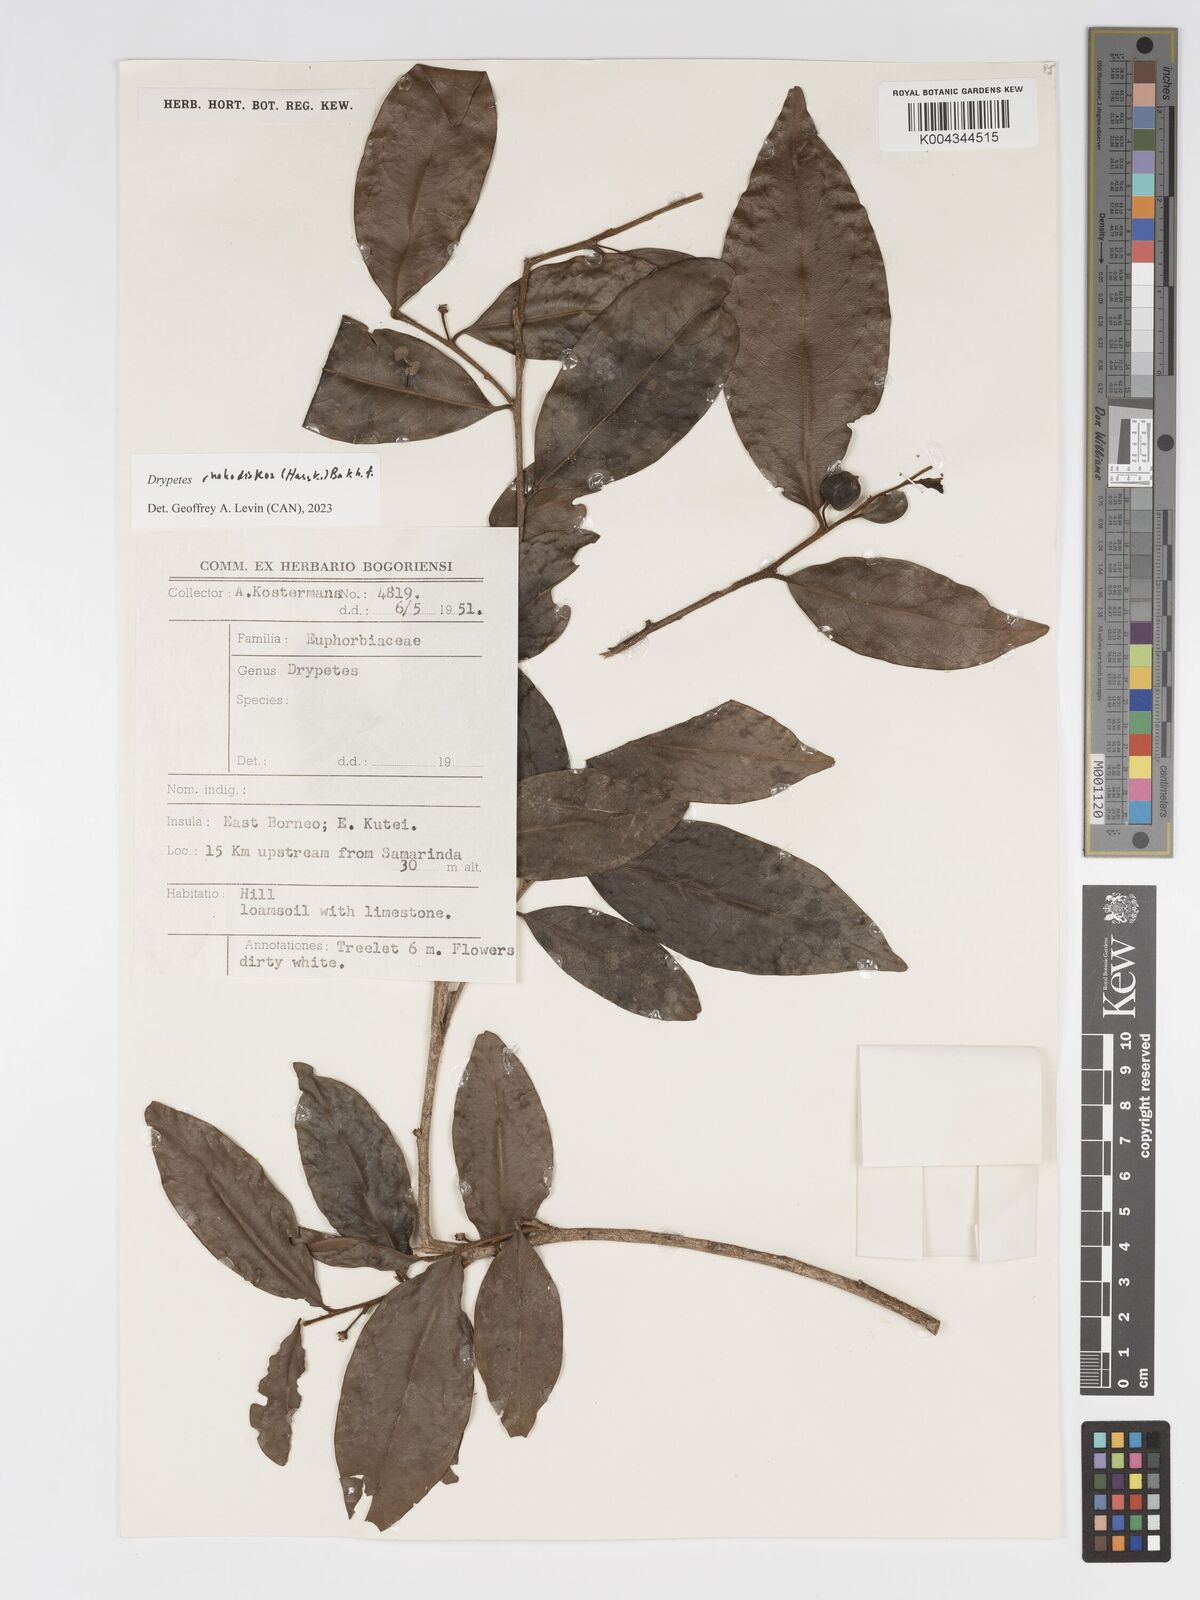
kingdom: Plantae
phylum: Tracheophyta
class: Magnoliopsida
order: Malpighiales
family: Putranjivaceae
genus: Drypetes
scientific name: Drypetes rhakodiskos
